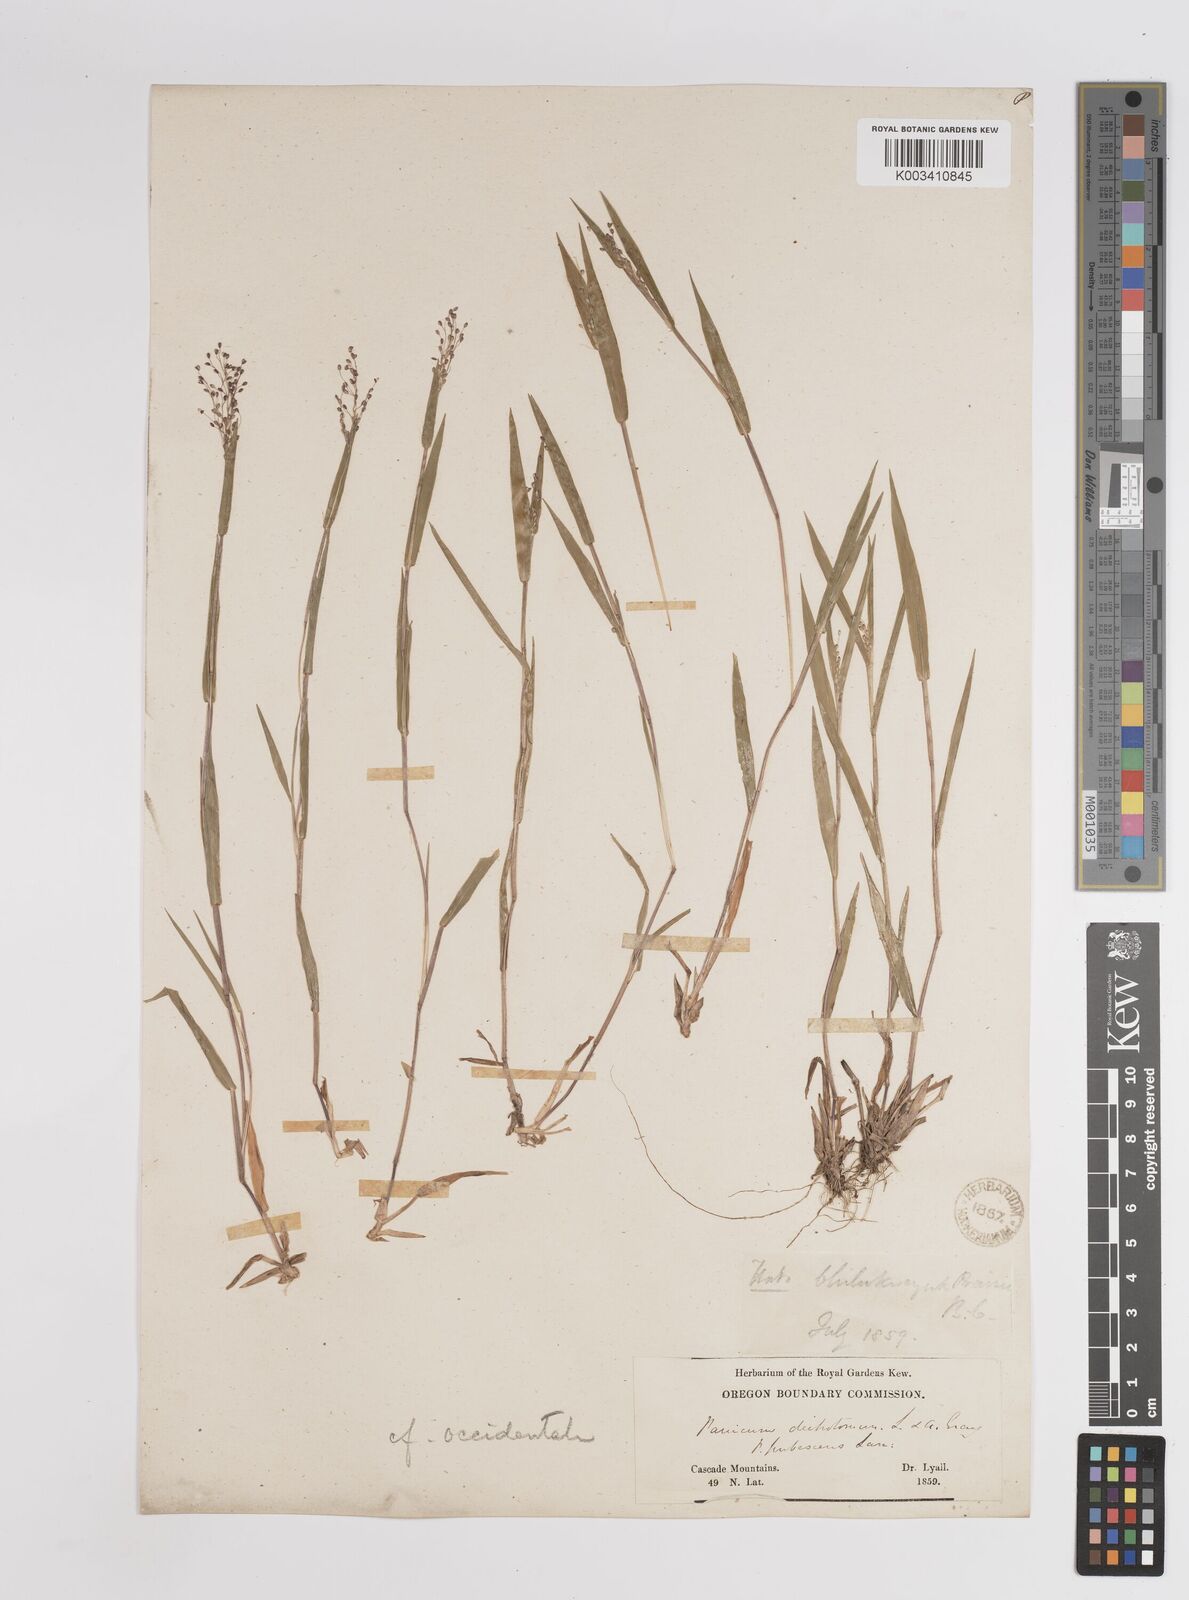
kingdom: Plantae
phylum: Tracheophyta
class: Liliopsida
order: Poales
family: Poaceae
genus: Dichanthelium
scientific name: Dichanthelium implicatum
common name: Slender-stemmed panicgrass
